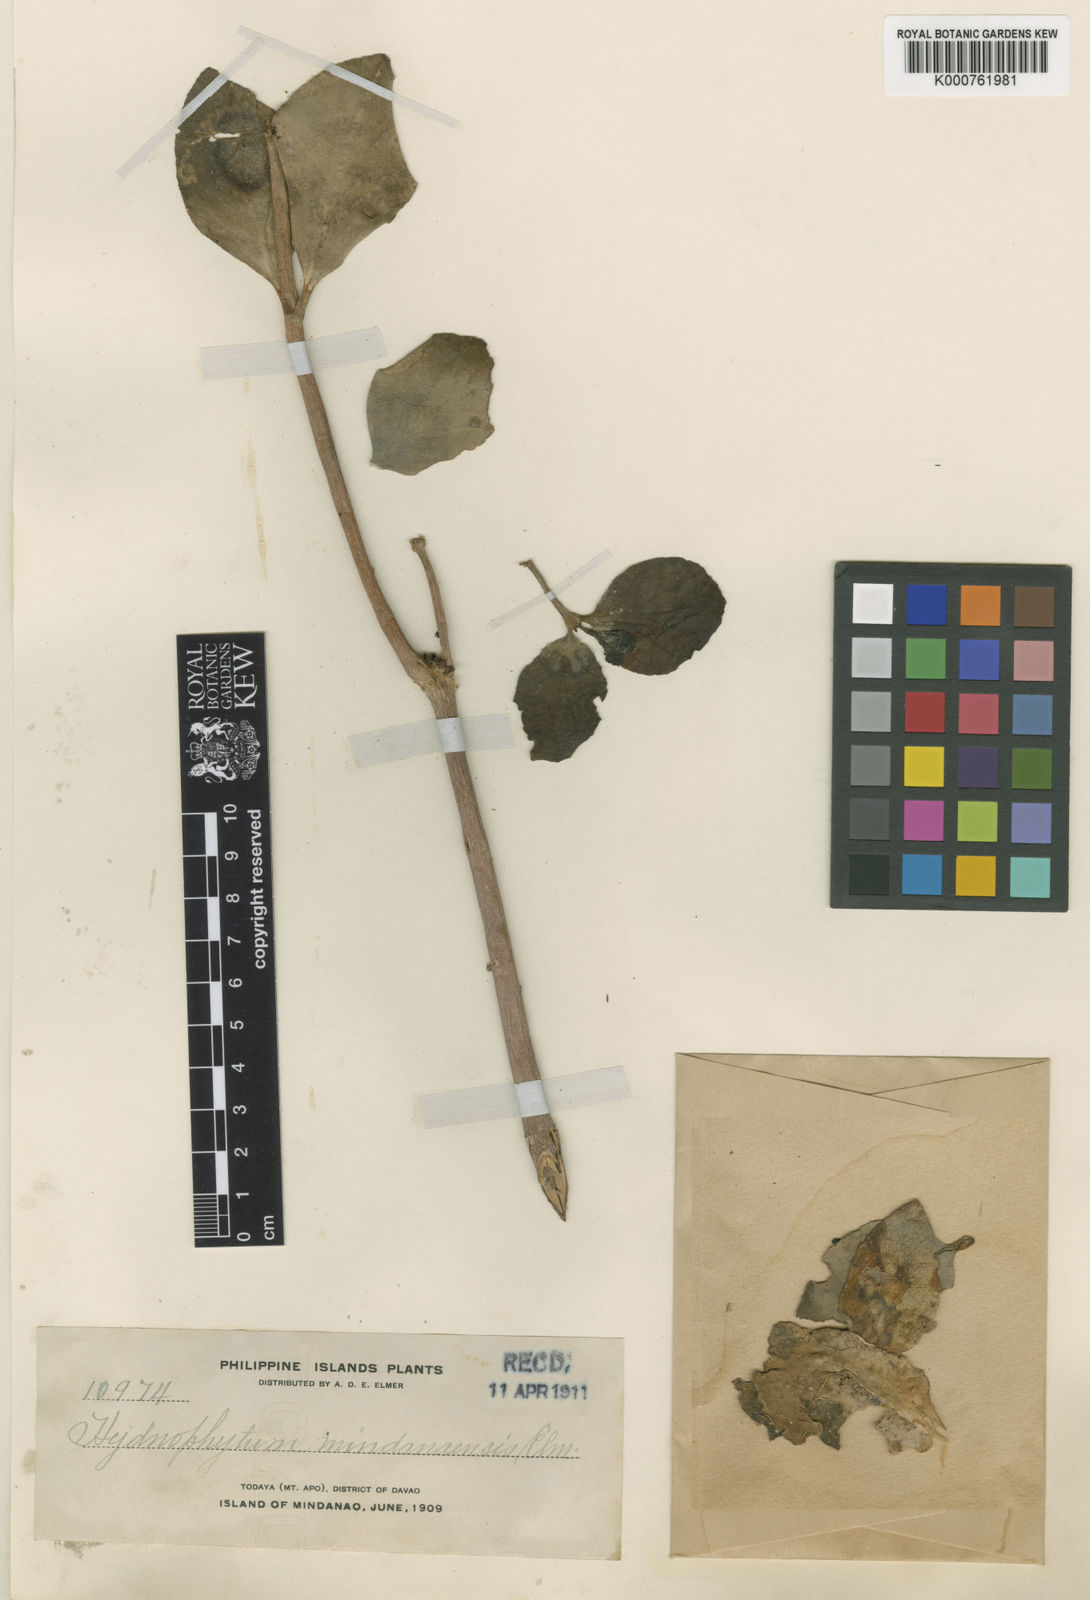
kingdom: Plantae
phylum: Tracheophyta
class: Magnoliopsida
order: Gentianales
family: Rubiaceae
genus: Hydnophytum
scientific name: Hydnophytum moseleyanum
